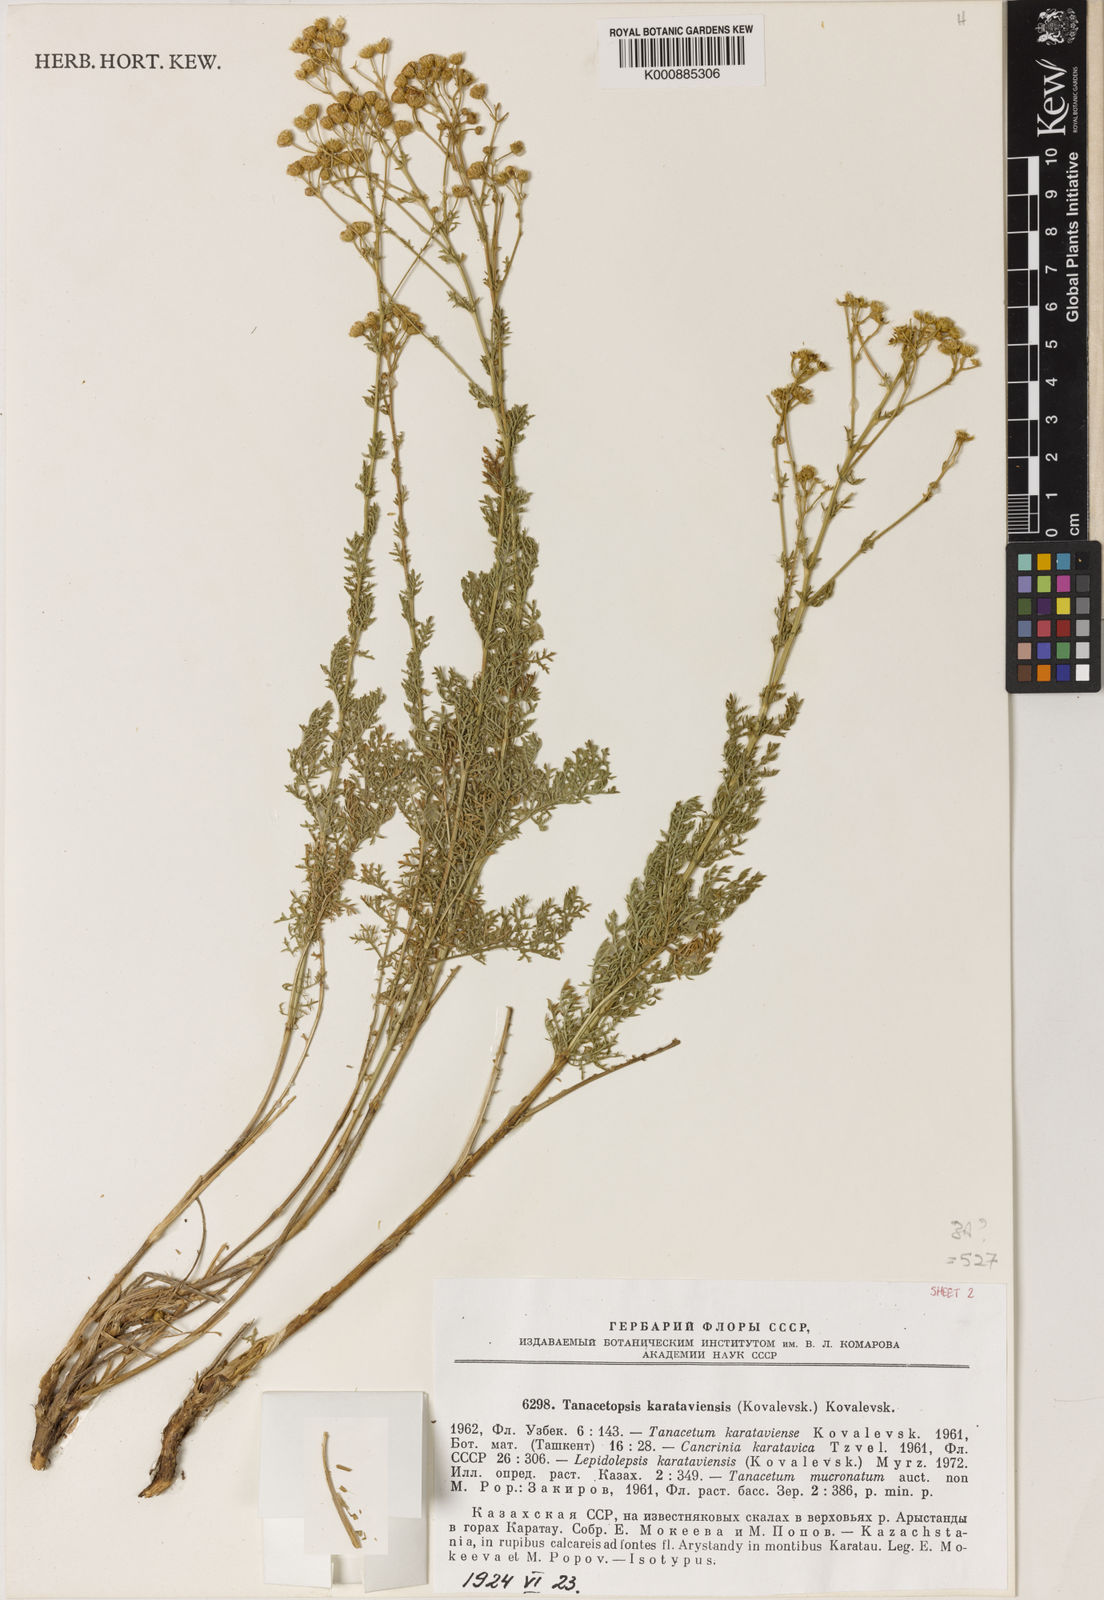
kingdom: Plantae
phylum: Tracheophyta
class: Magnoliopsida
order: Asterales
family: Asteraceae
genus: Tanacetopsis
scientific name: Tanacetopsis
